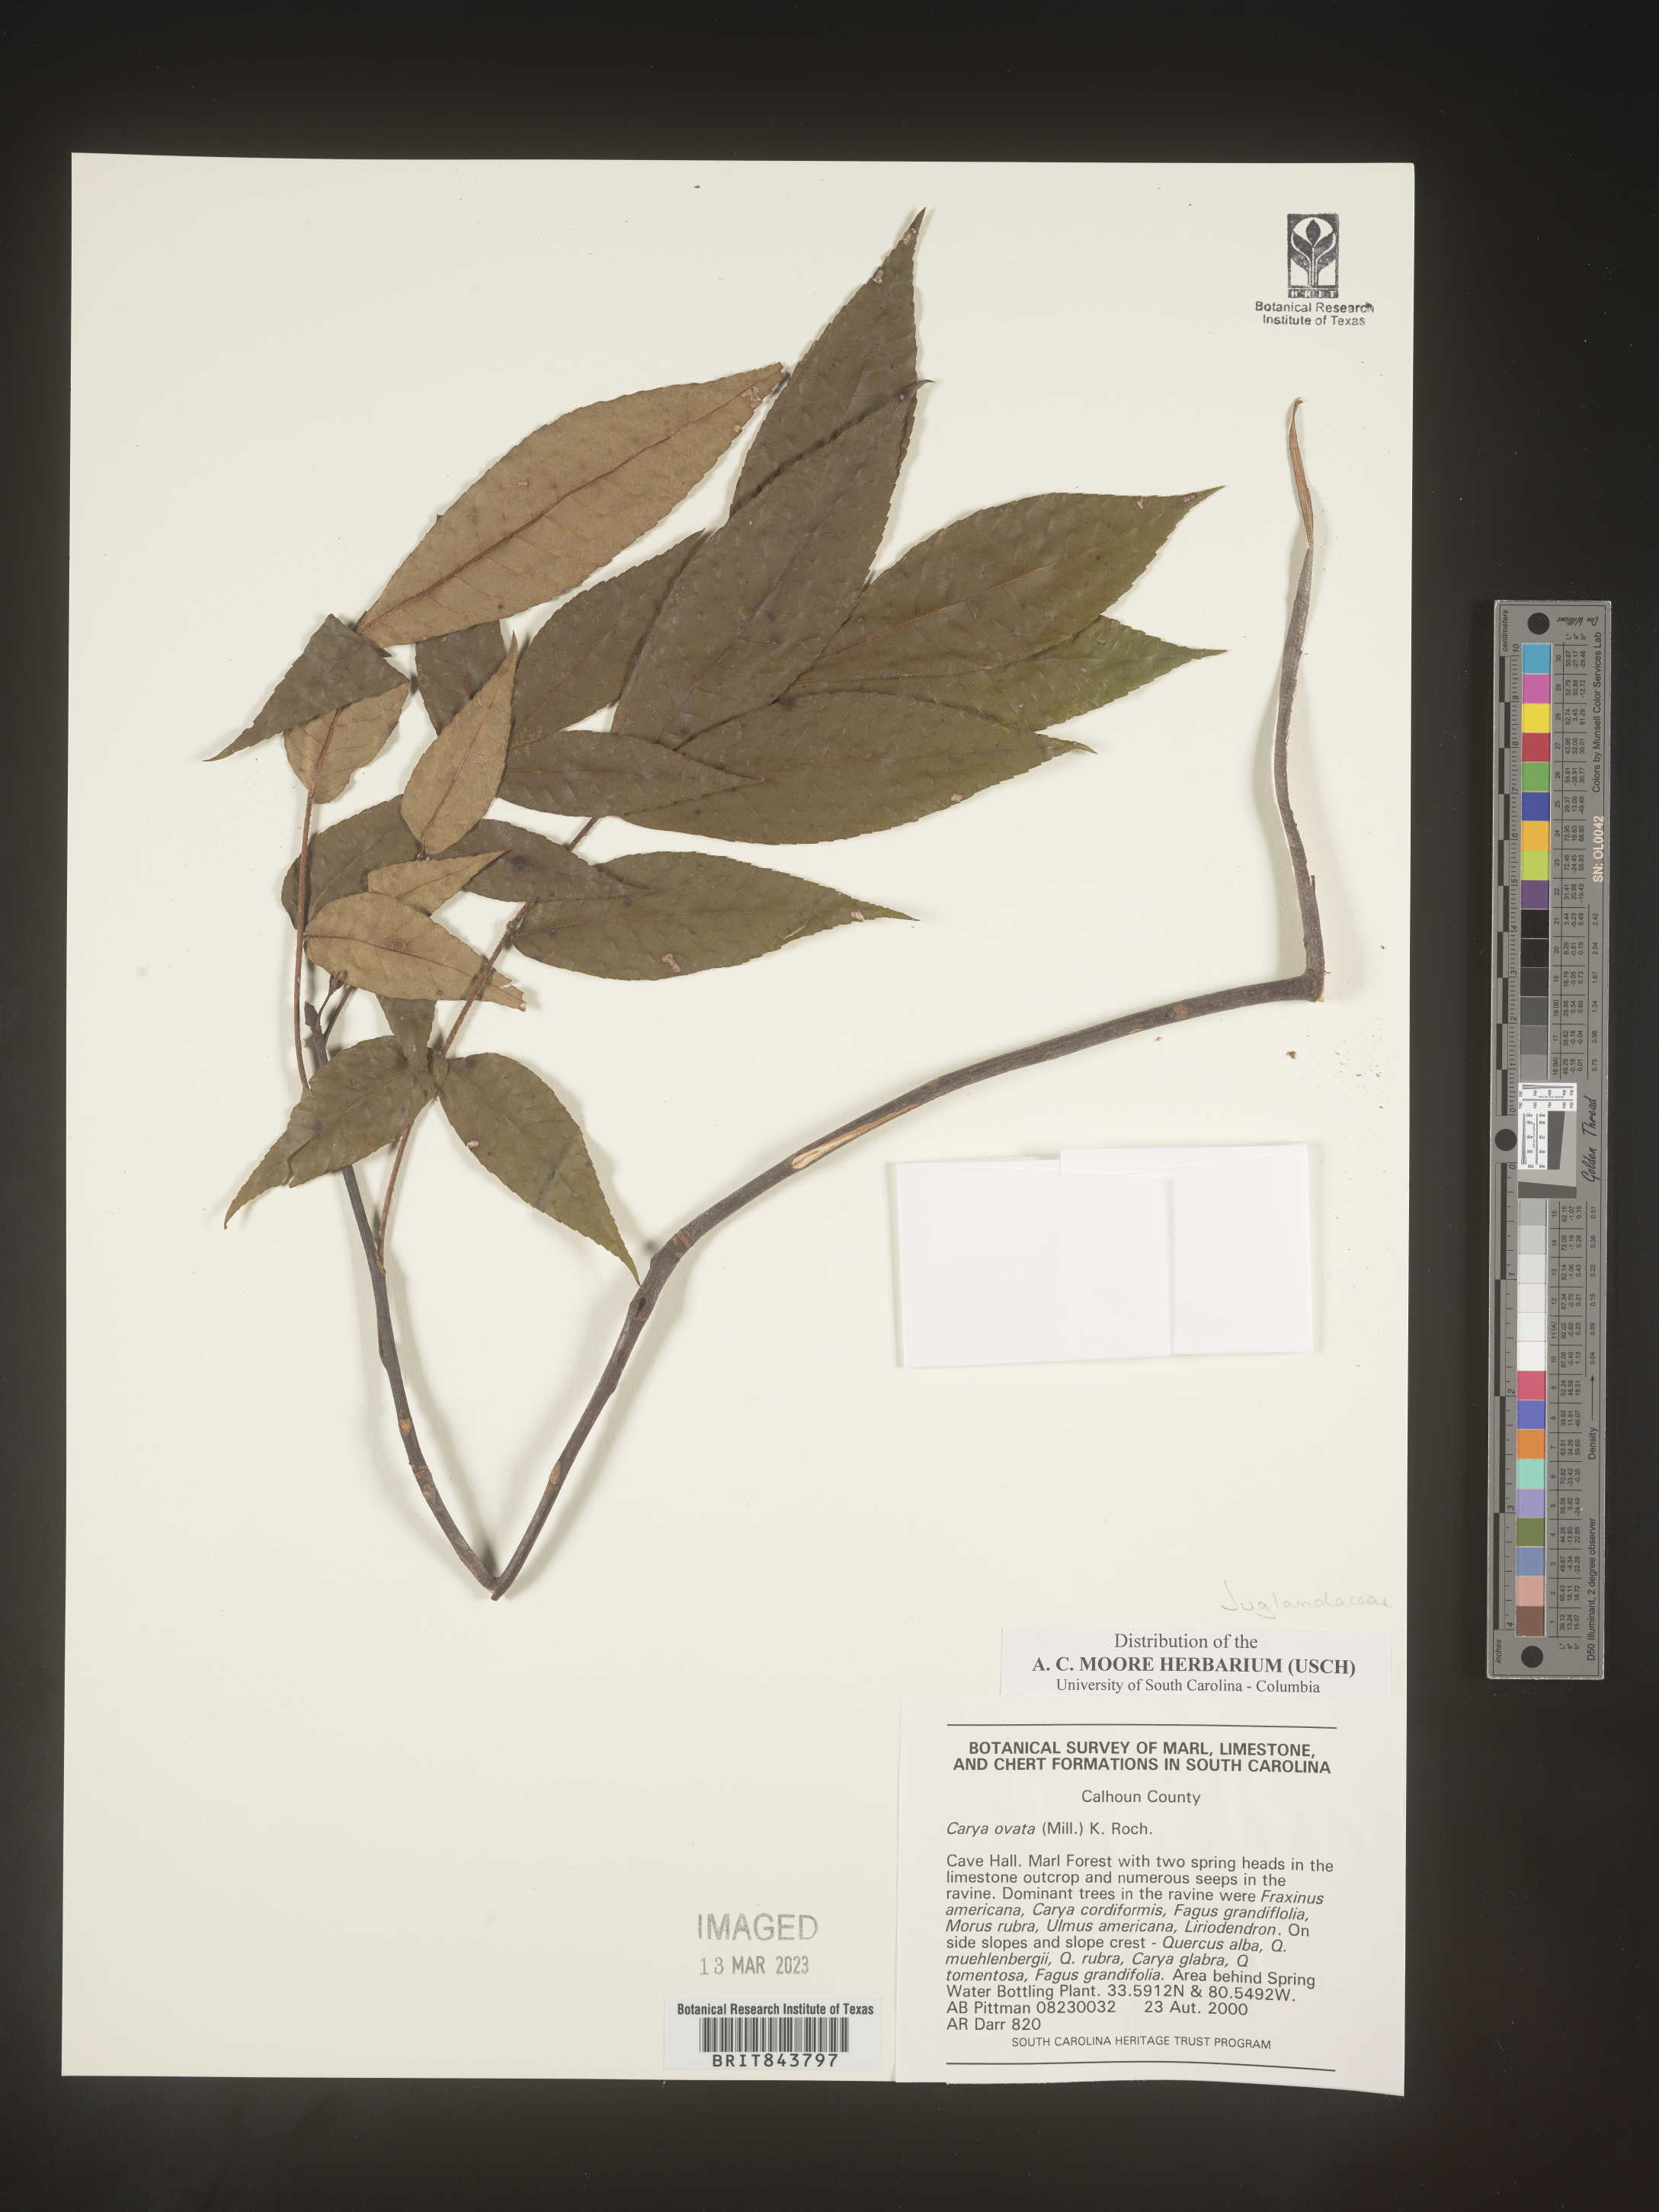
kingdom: Plantae
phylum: Tracheophyta
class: Magnoliopsida
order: Fagales
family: Juglandaceae
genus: Carya
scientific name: Carya ovata
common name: Shagbark hickory
